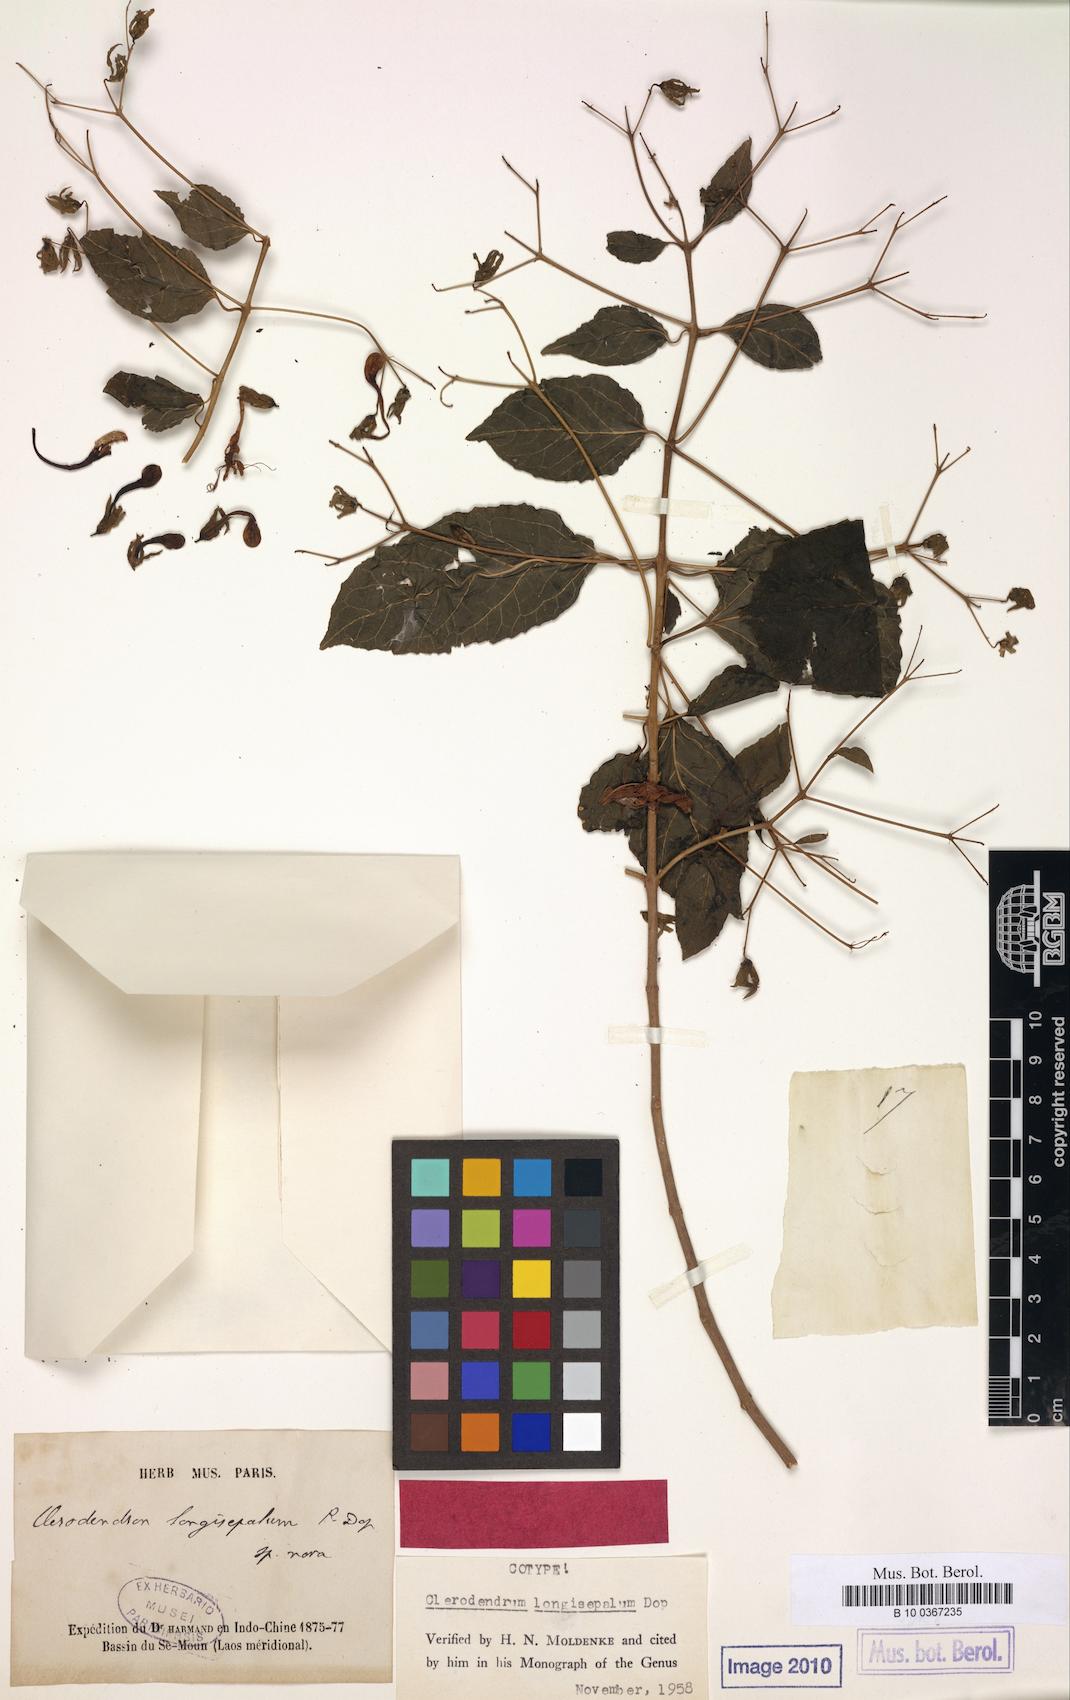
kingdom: Plantae
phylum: Tracheophyta
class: Magnoliopsida
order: Lamiales
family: Lamiaceae
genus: Clerodendrum
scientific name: Clerodendrum longisepalum
